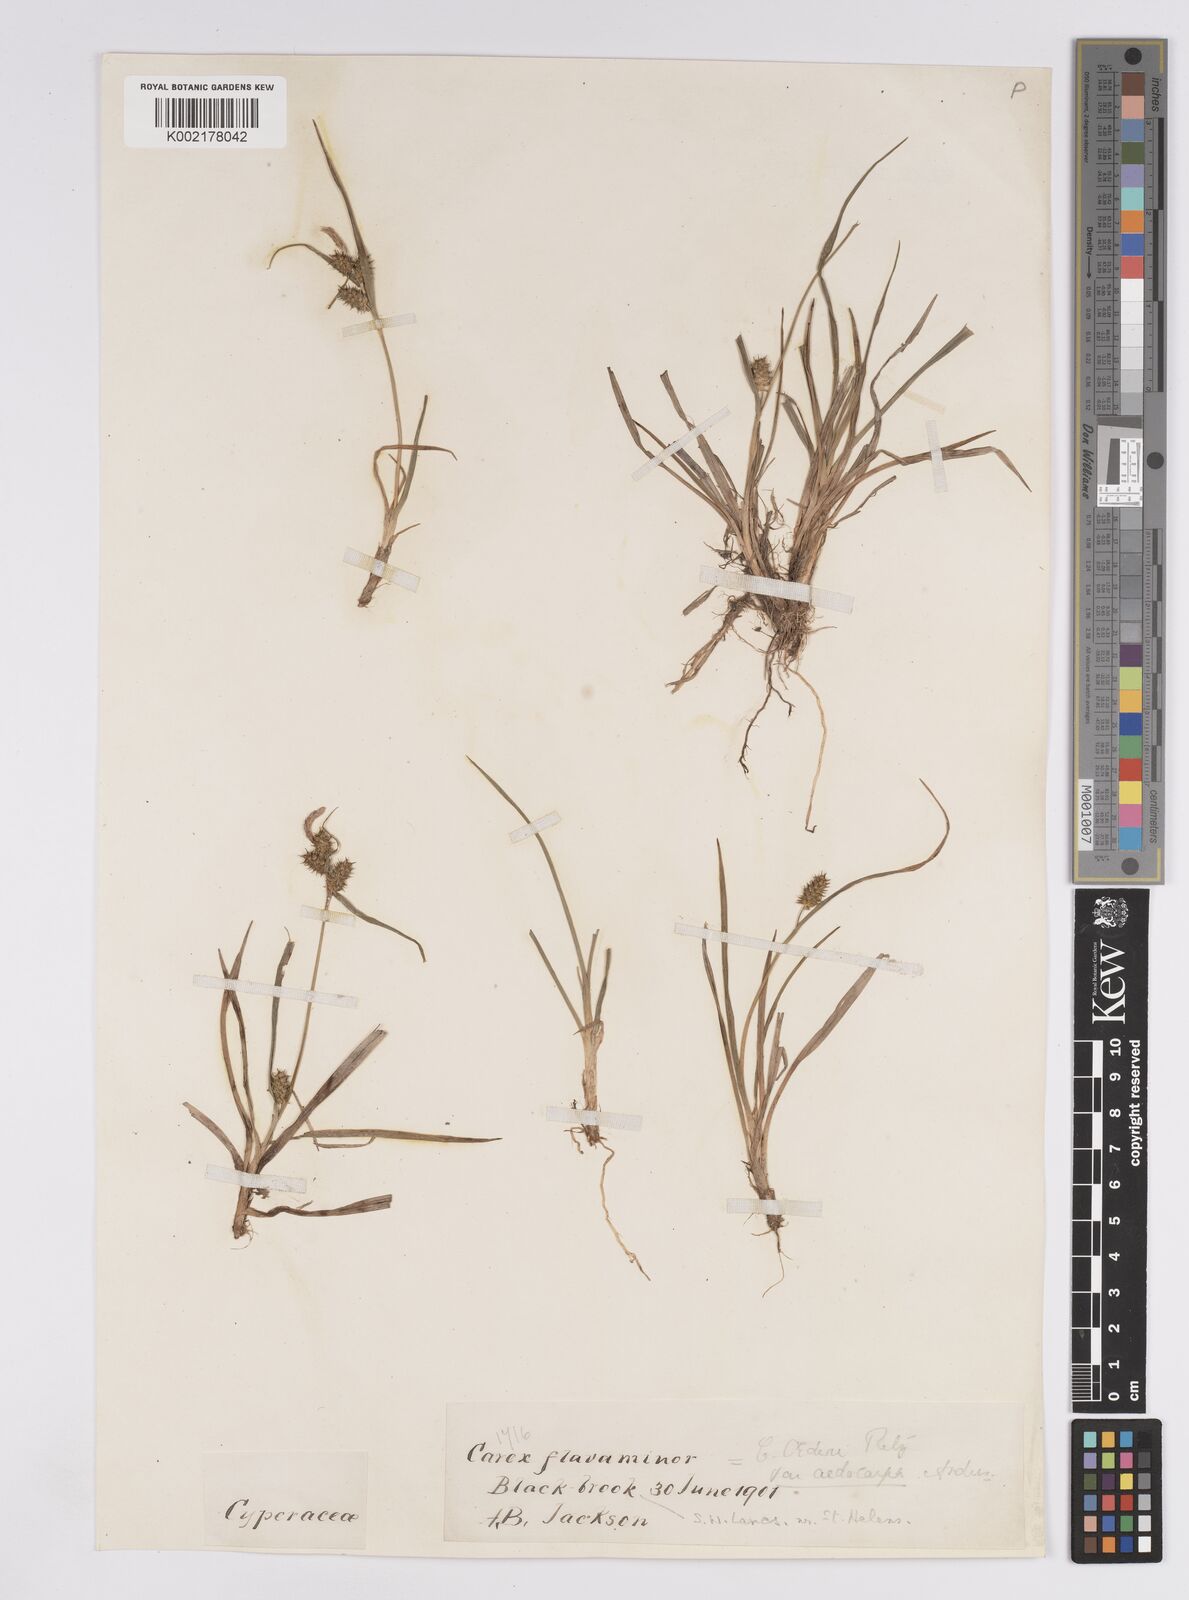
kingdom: Plantae
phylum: Tracheophyta
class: Liliopsida
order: Poales
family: Cyperaceae
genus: Carex
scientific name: Carex demissa
